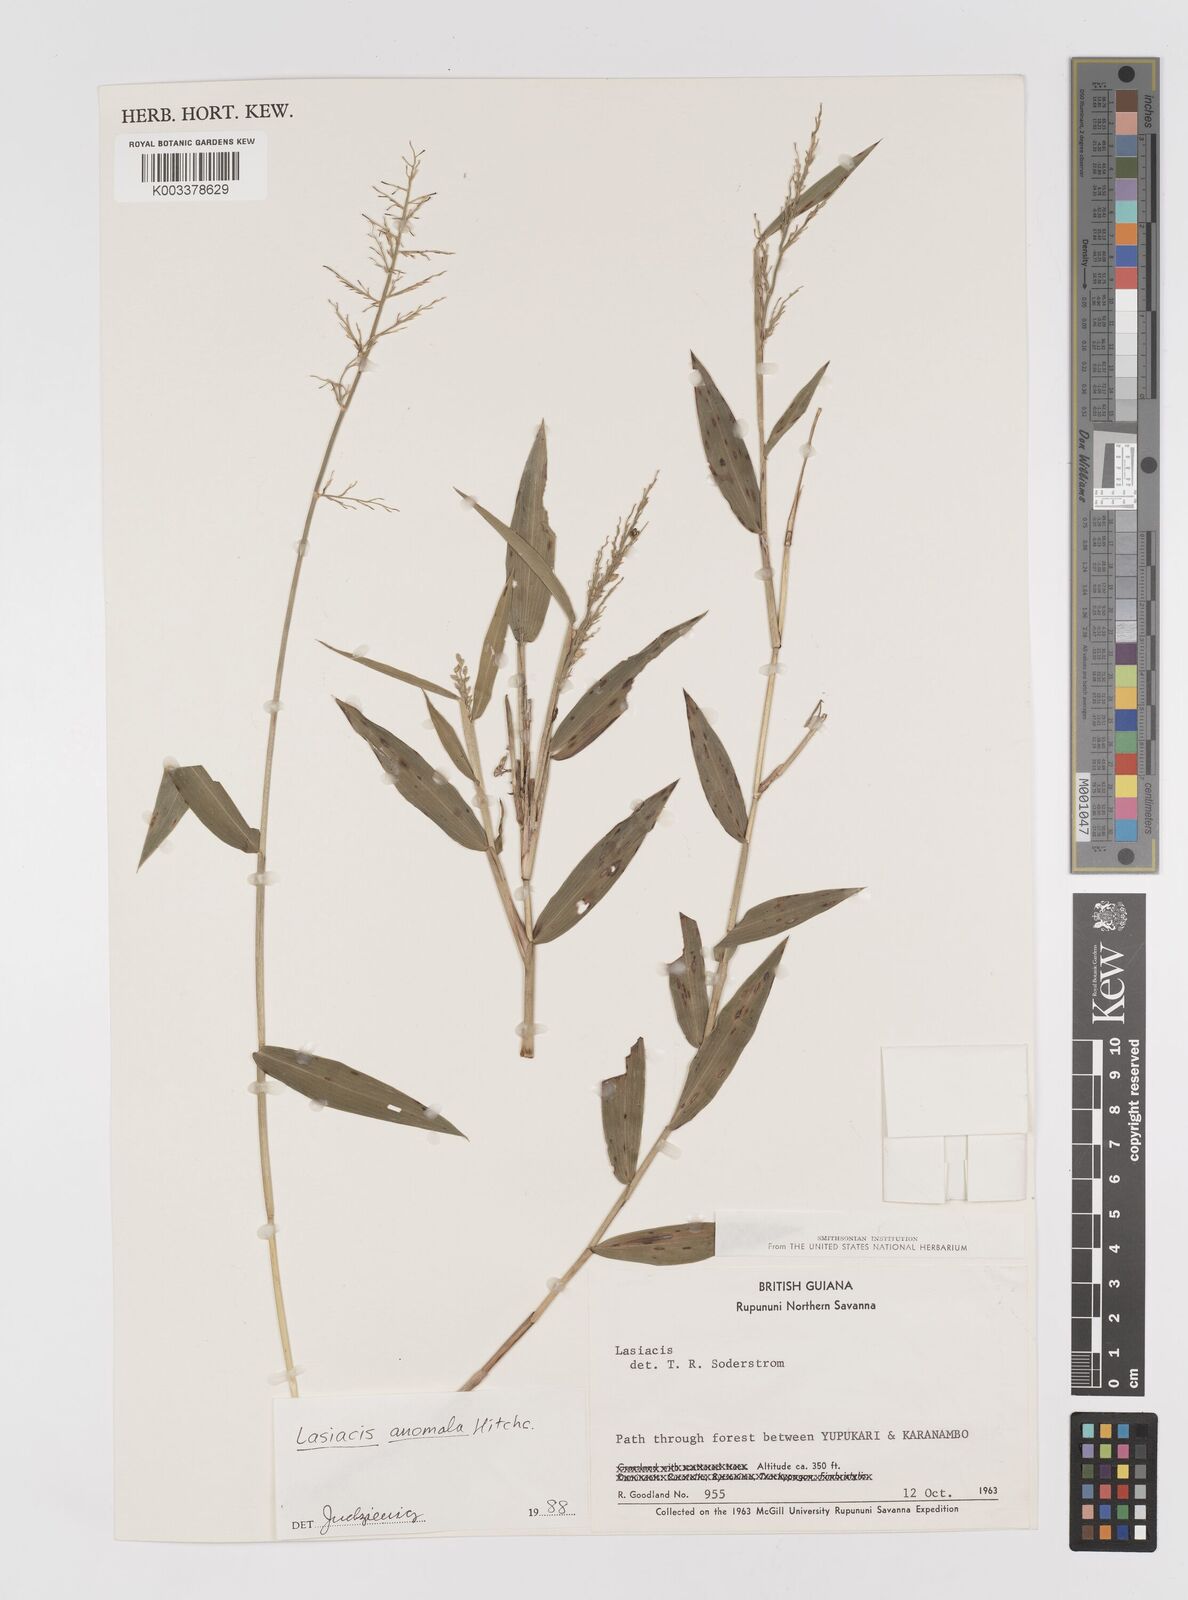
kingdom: Plantae
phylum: Tracheophyta
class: Liliopsida
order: Poales
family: Poaceae
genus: Lasiacis
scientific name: Lasiacis anomala
